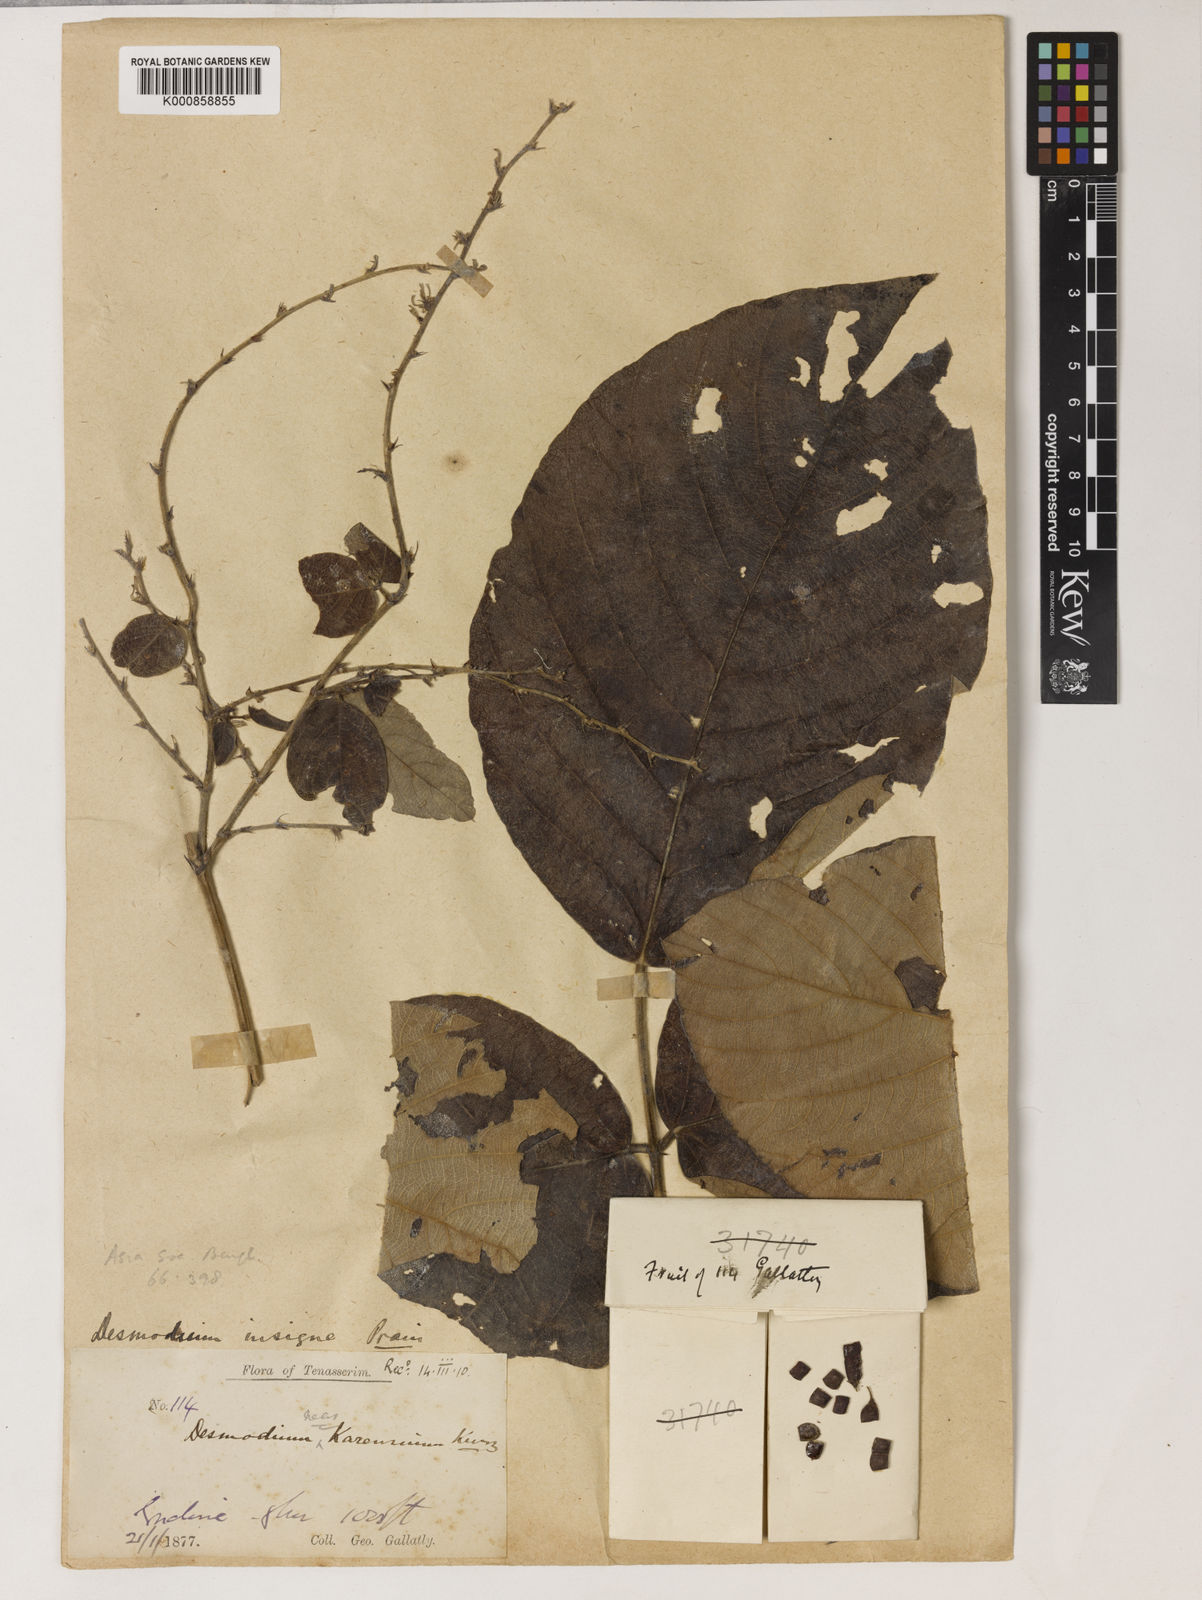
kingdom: Plantae
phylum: Tracheophyta
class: Magnoliopsida
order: Fabales
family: Fabaceae
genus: Phyllodium
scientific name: Phyllodium insigne
